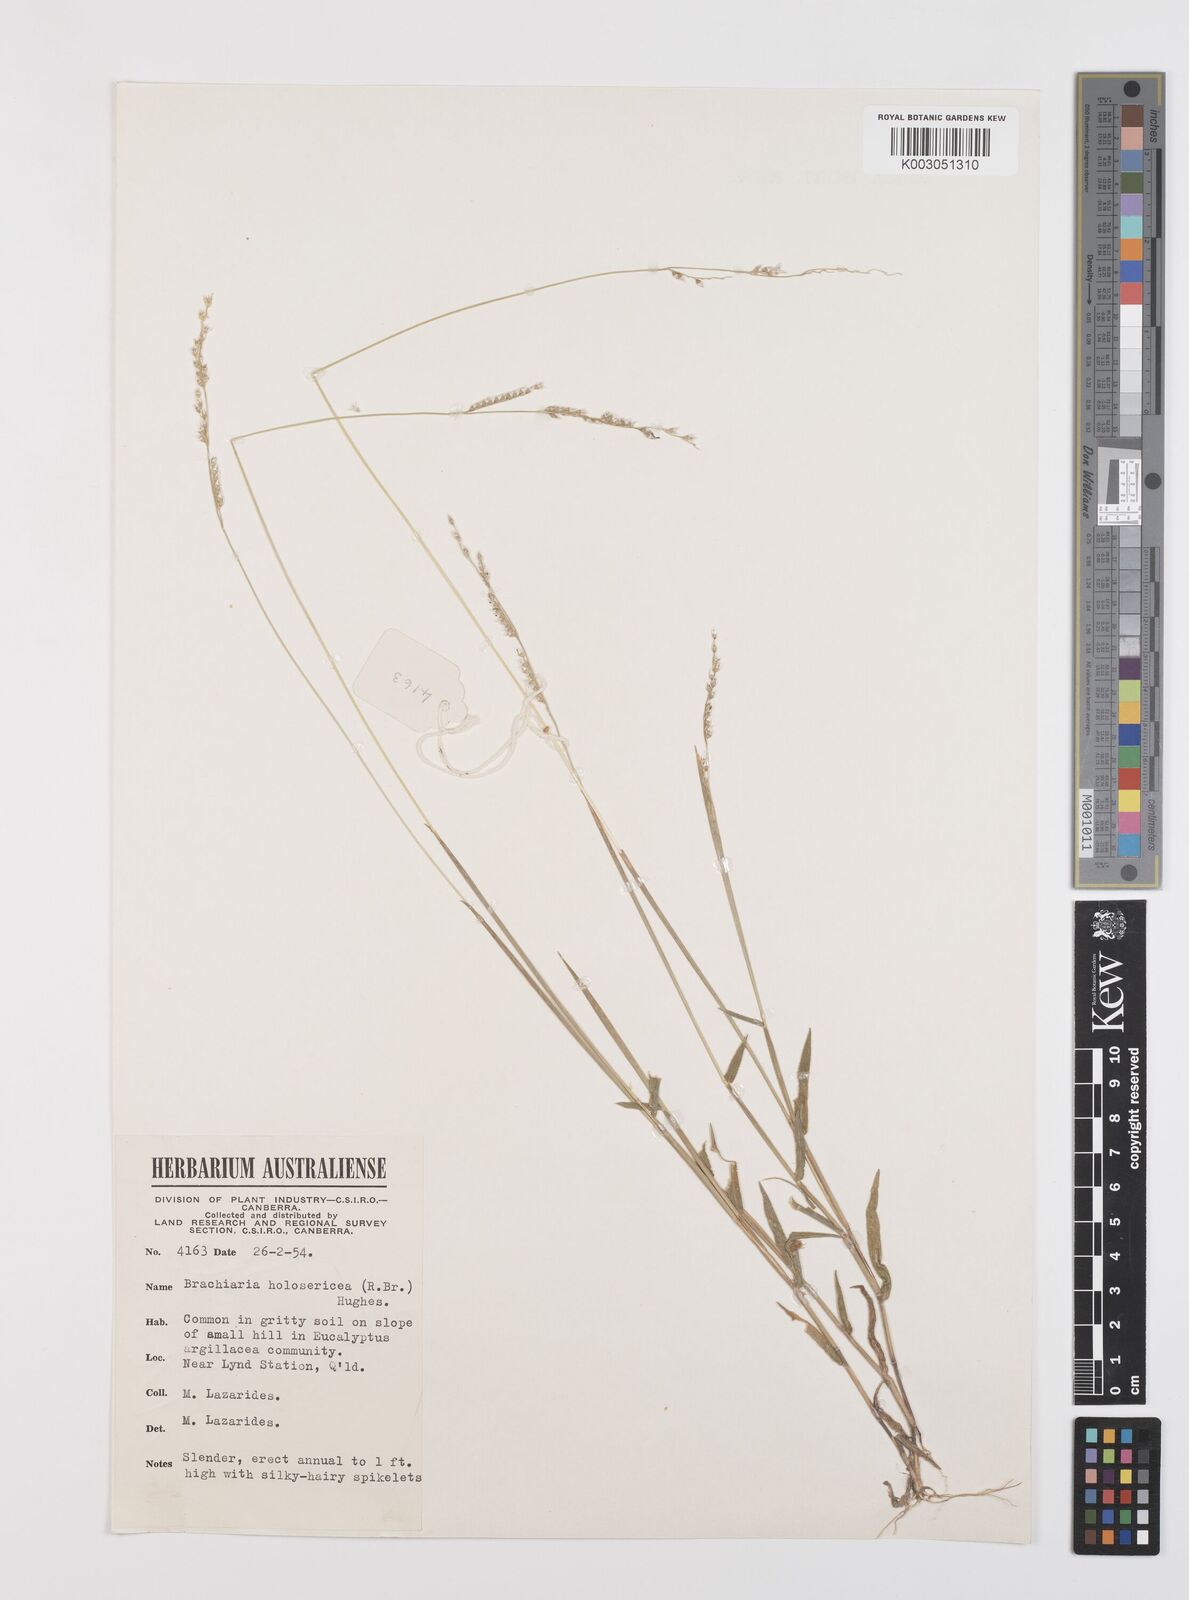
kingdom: Plantae
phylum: Tracheophyta
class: Liliopsida
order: Poales
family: Poaceae
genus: Urochloa
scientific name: Urochloa holosericea
